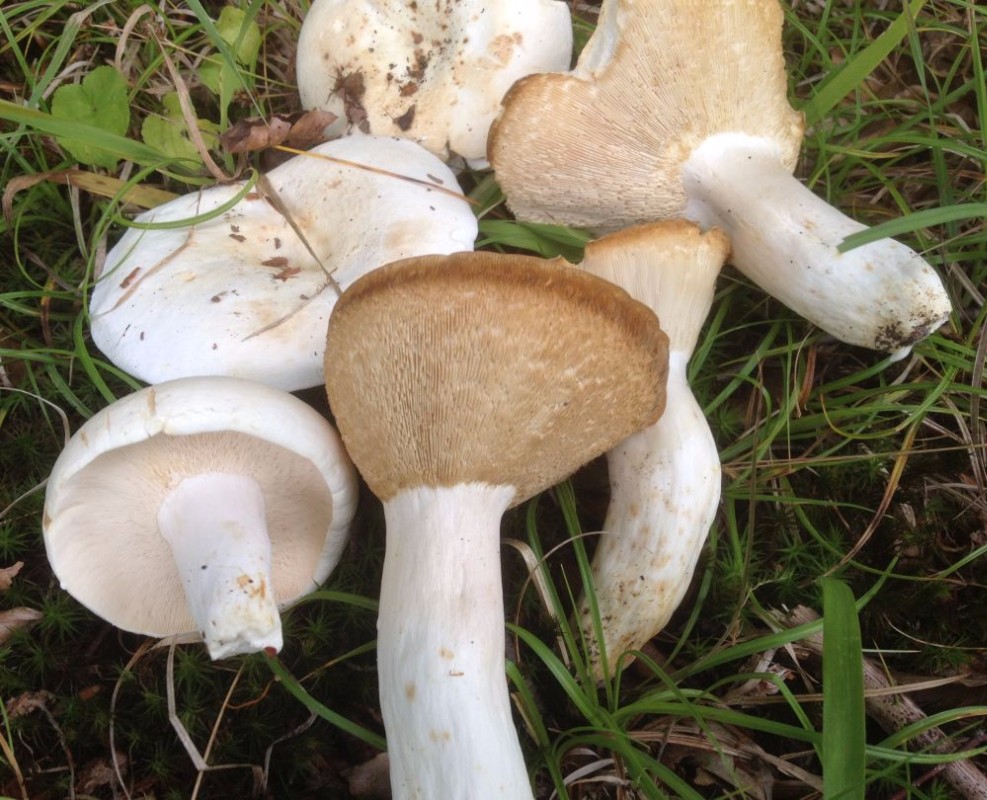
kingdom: Fungi
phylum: Basidiomycota
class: Agaricomycetes
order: Russulales
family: Russulaceae
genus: Lactifluus
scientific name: Lactifluus piperatus
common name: peber-mælkehat
